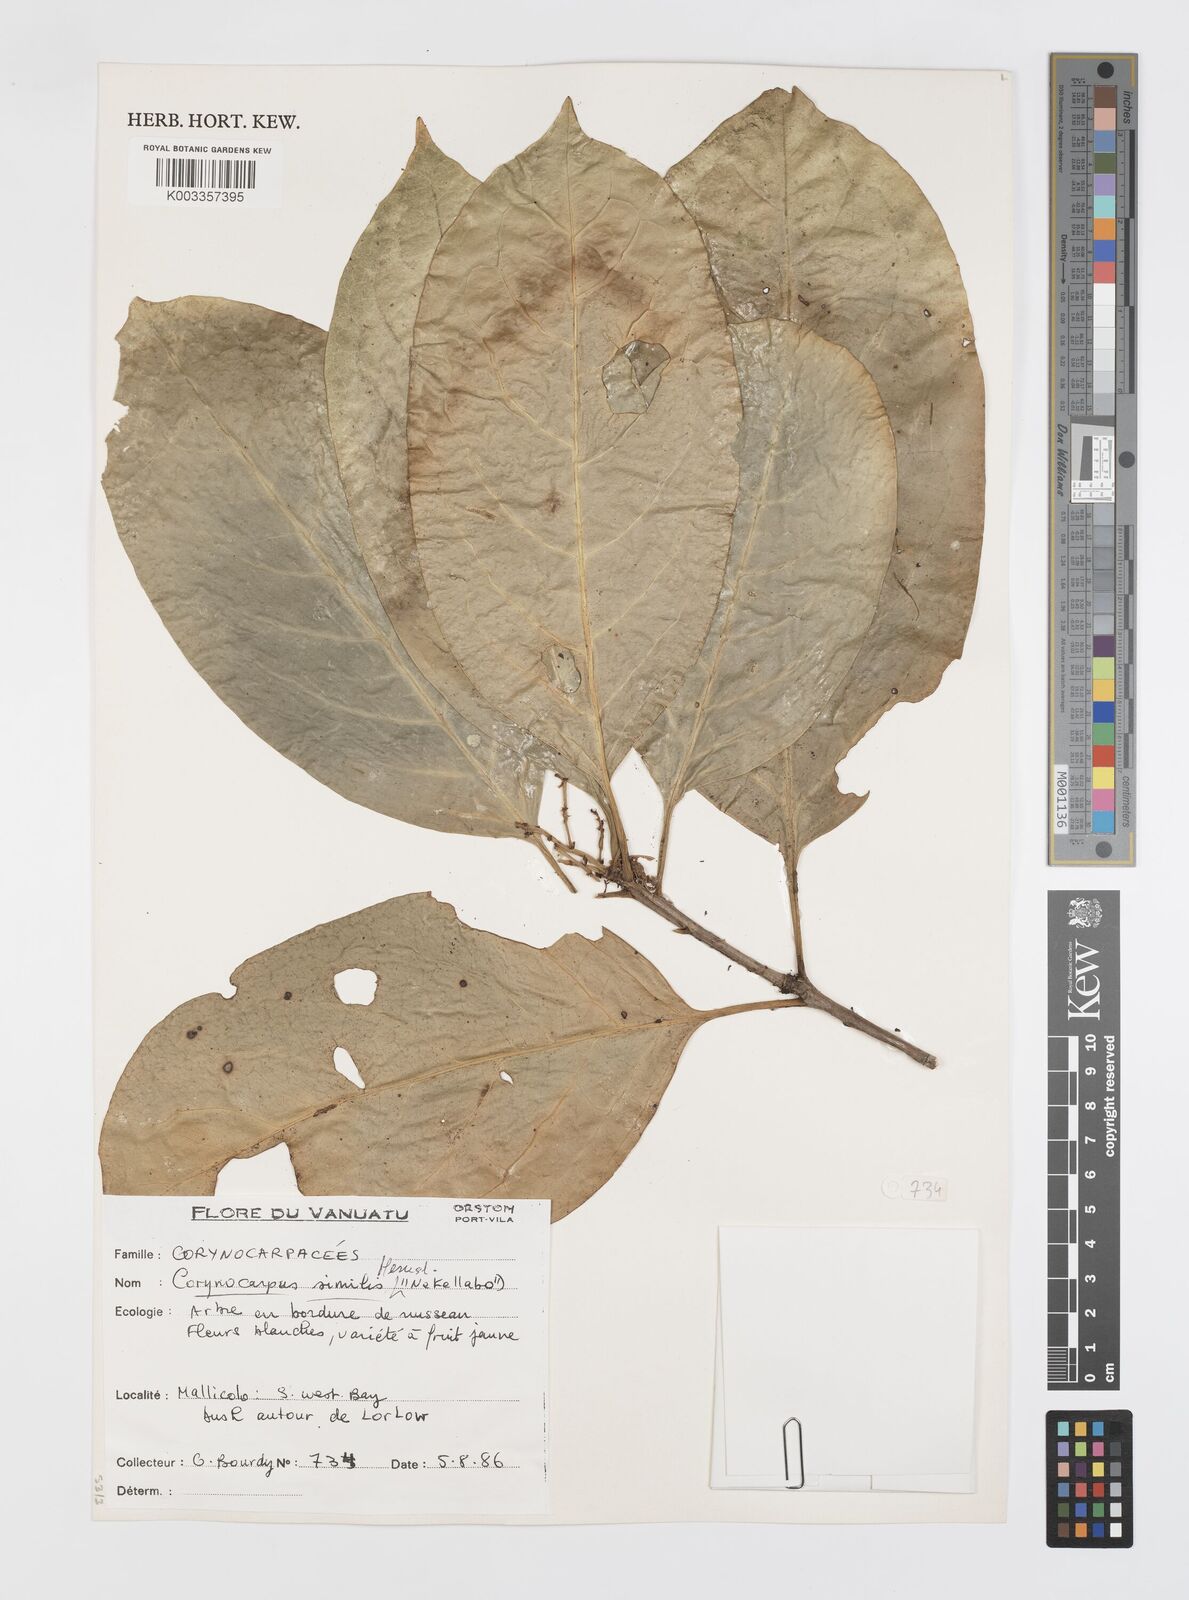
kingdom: Plantae
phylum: Tracheophyta
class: Magnoliopsida
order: Cucurbitales
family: Corynocarpaceae
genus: Corynocarpus
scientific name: Corynocarpus similis
